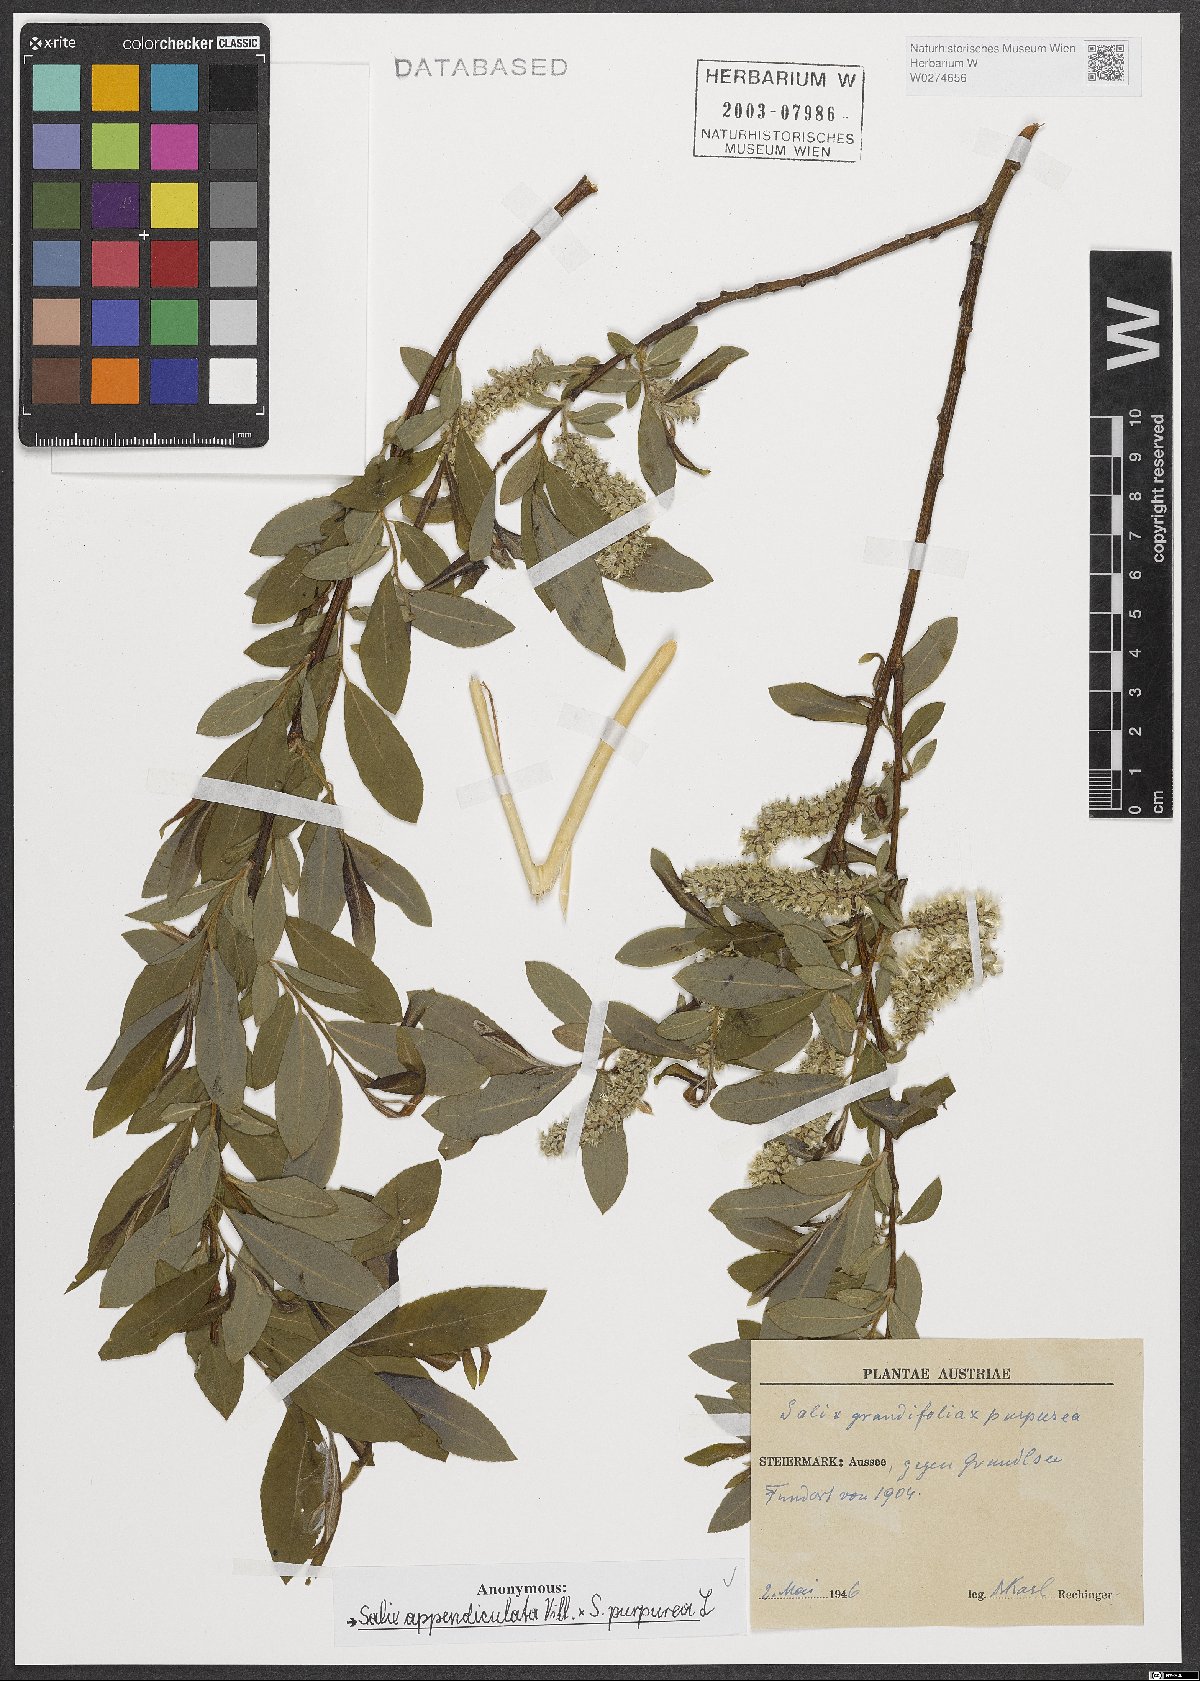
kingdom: Plantae
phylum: Tracheophyta
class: Magnoliopsida
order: Malpighiales
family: Salicaceae
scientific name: Salicaceae
